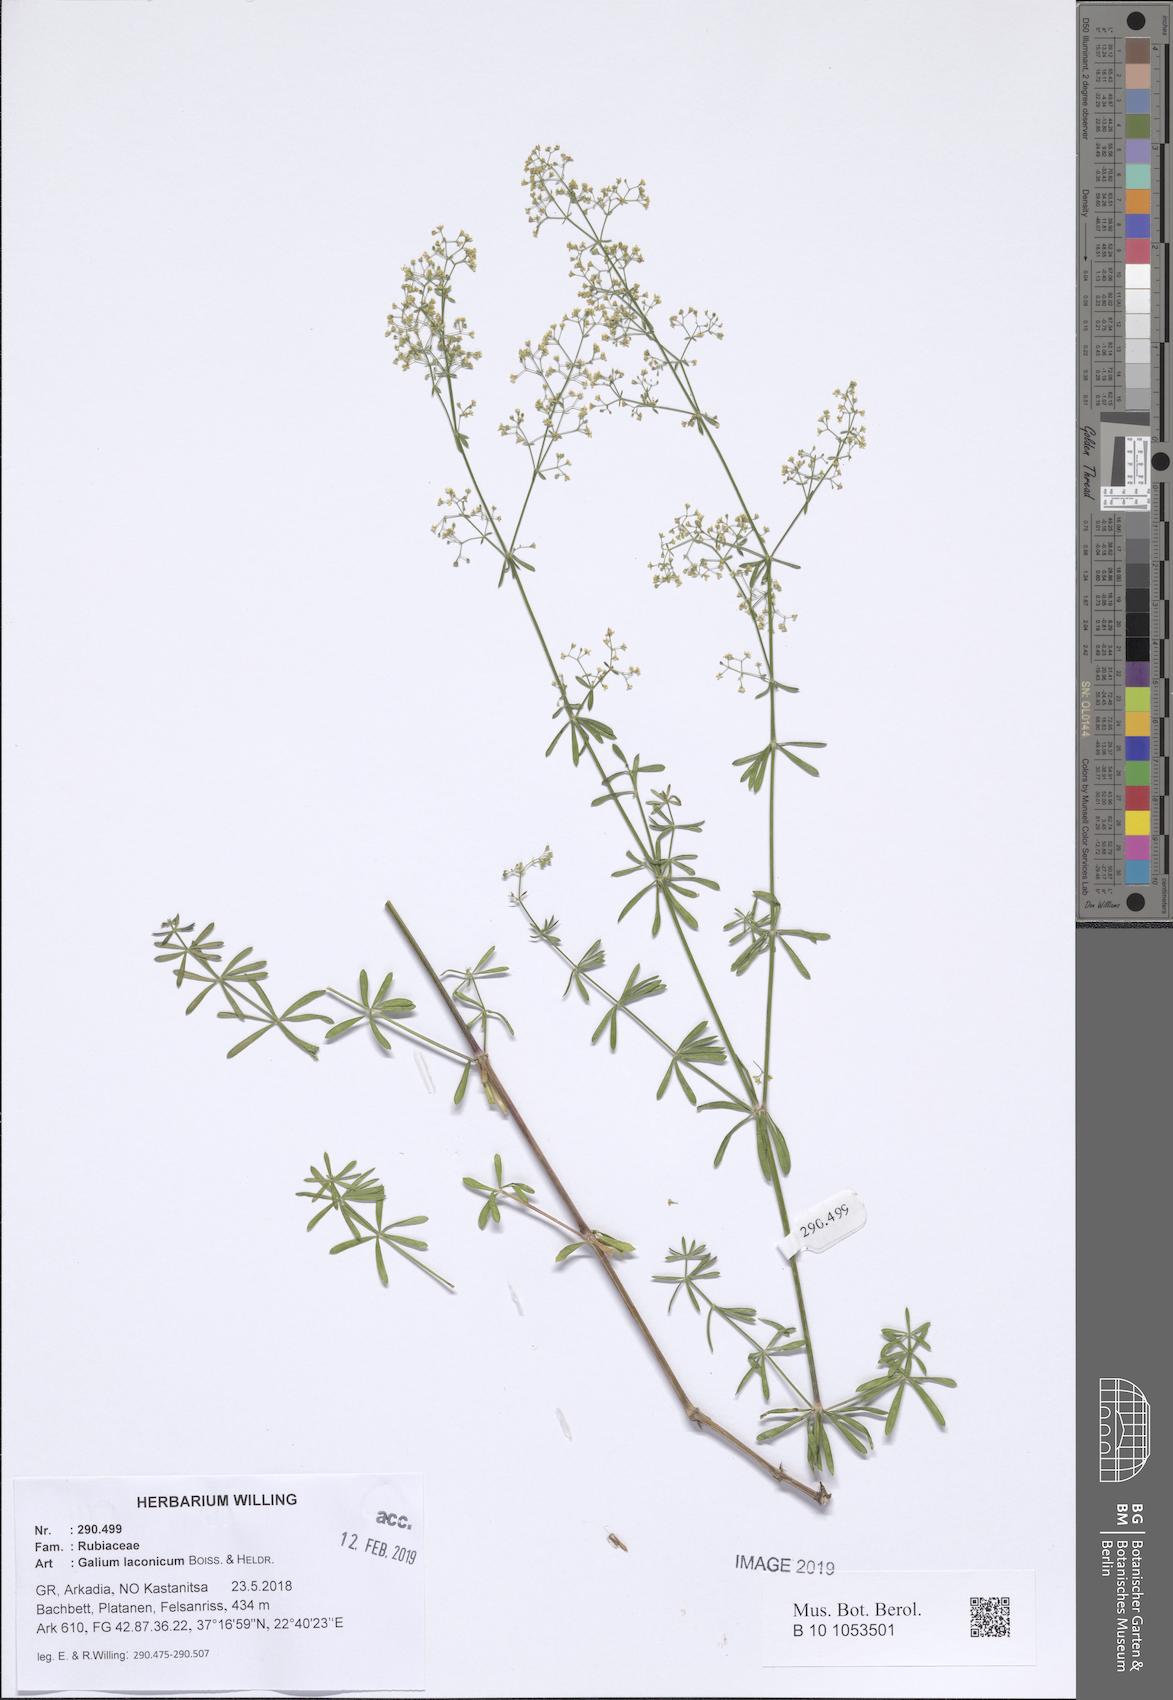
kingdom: Plantae
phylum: Tracheophyta
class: Magnoliopsida
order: Gentianales
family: Rubiaceae
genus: Galium
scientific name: Galium laconicum
